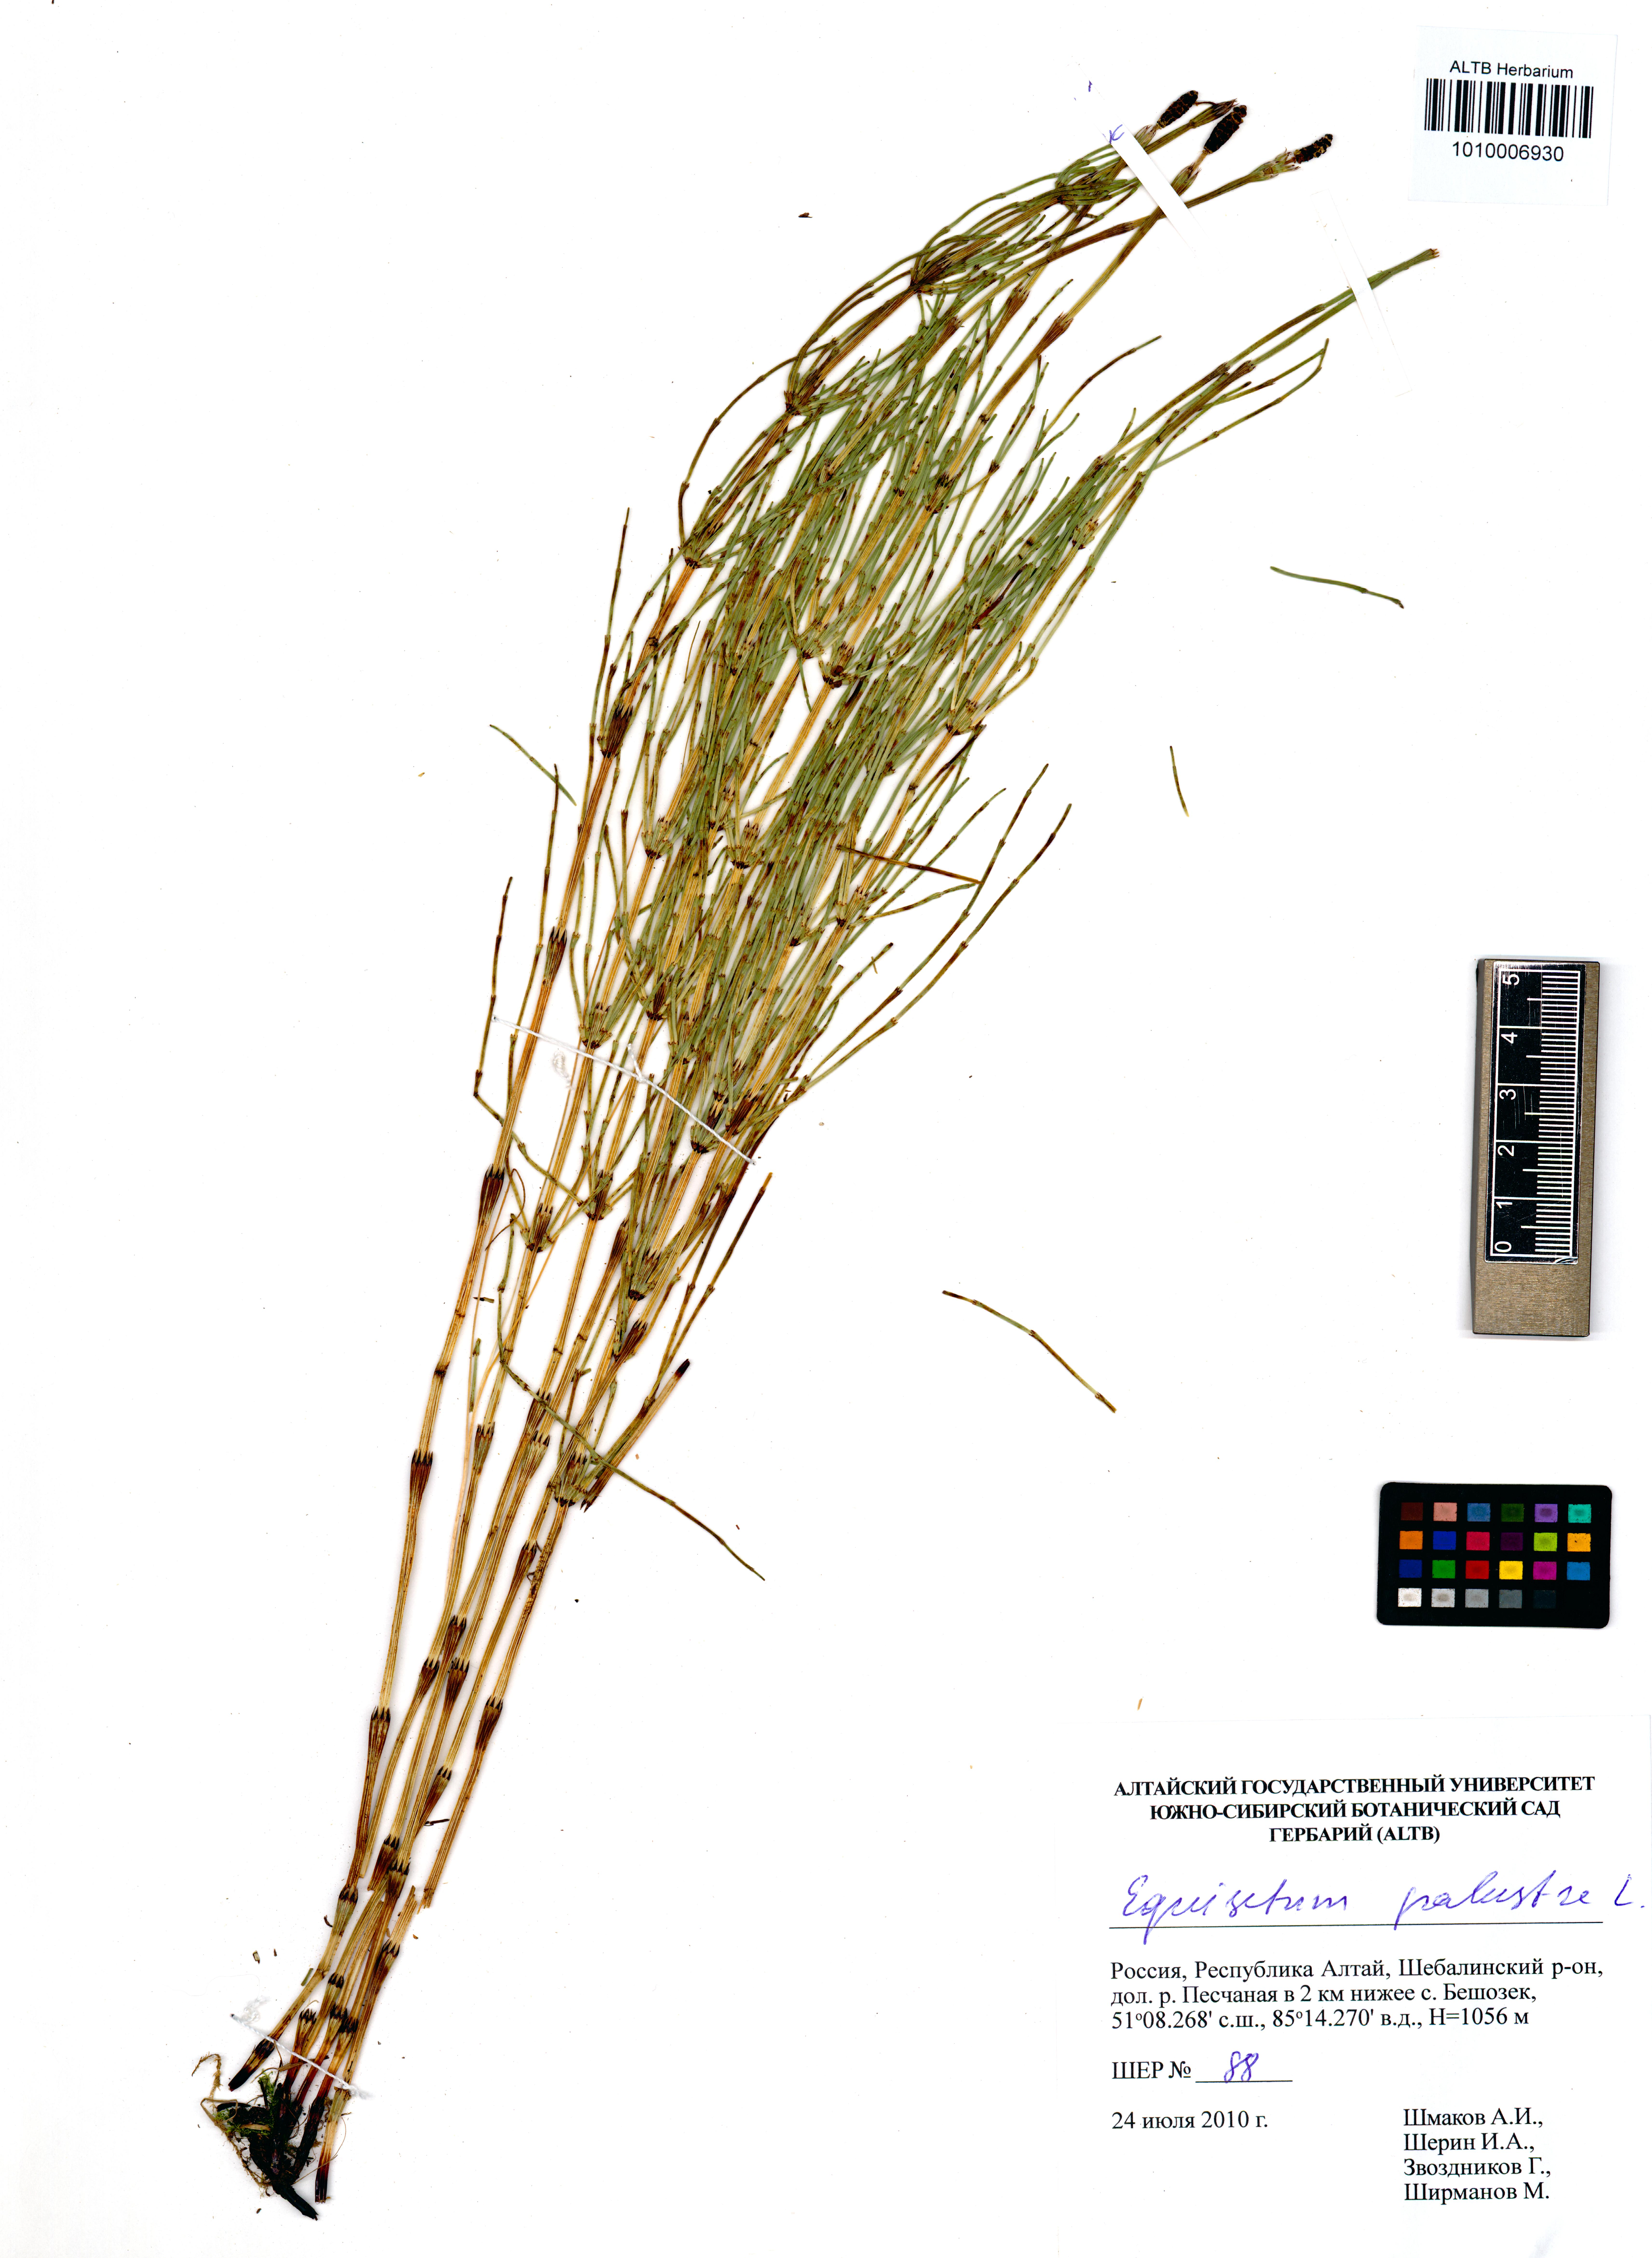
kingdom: Plantae
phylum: Tracheophyta
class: Polypodiopsida
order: Equisetales
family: Equisetaceae
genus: Equisetum
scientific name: Equisetum palustre
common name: Marsh horsetail
